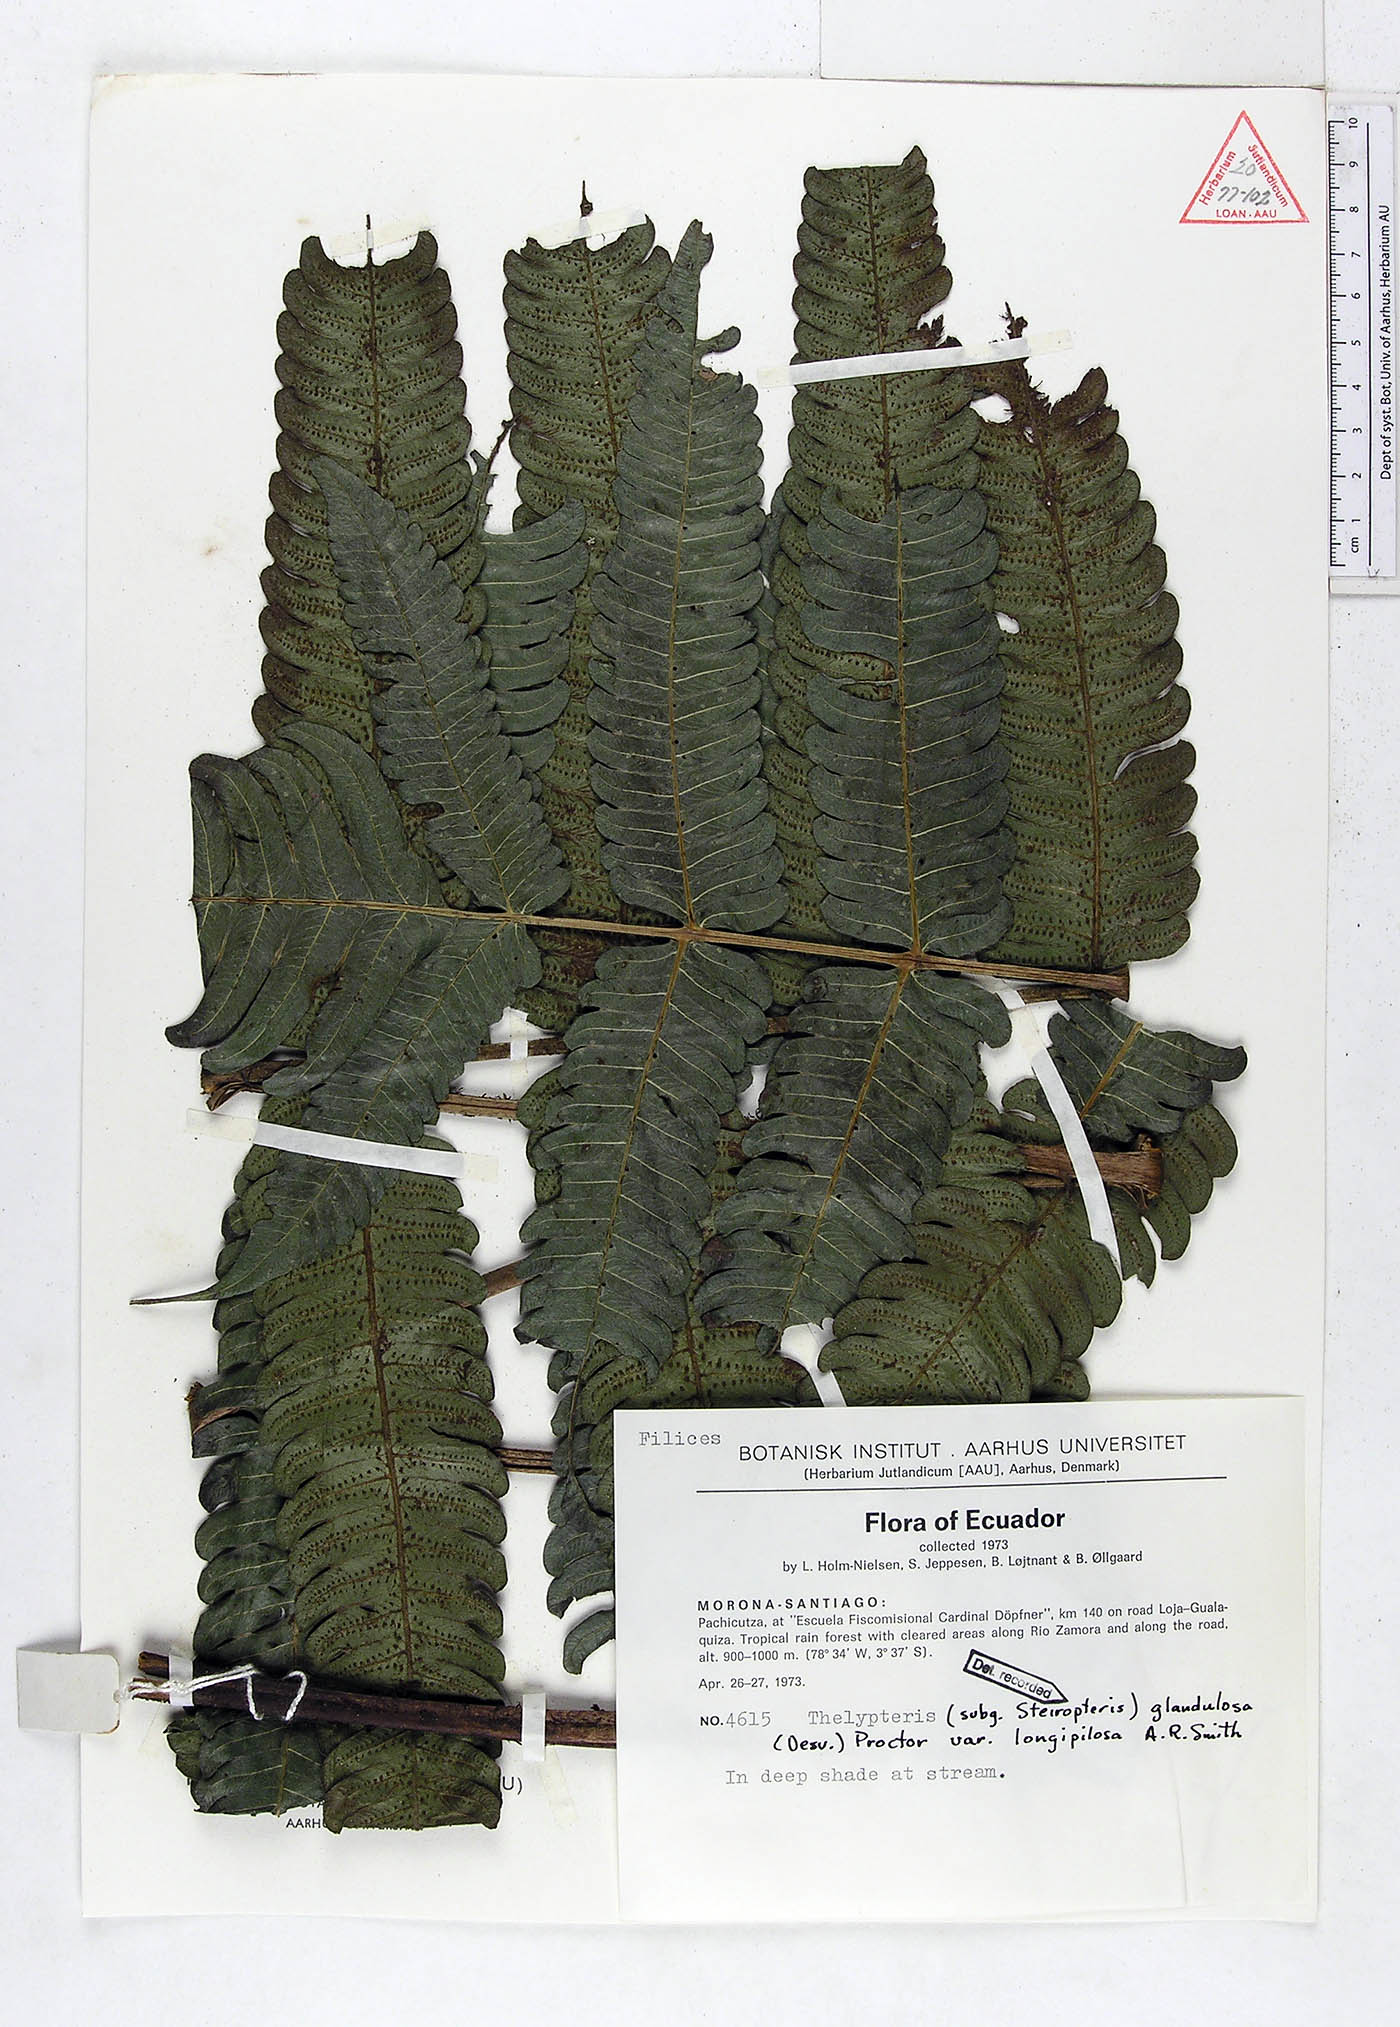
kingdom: Plantae
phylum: Tracheophyta
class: Polypodiopsida
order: Polypodiales
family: Thelypteridaceae
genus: Steiropteris
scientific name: Steiropteris glandulosa
